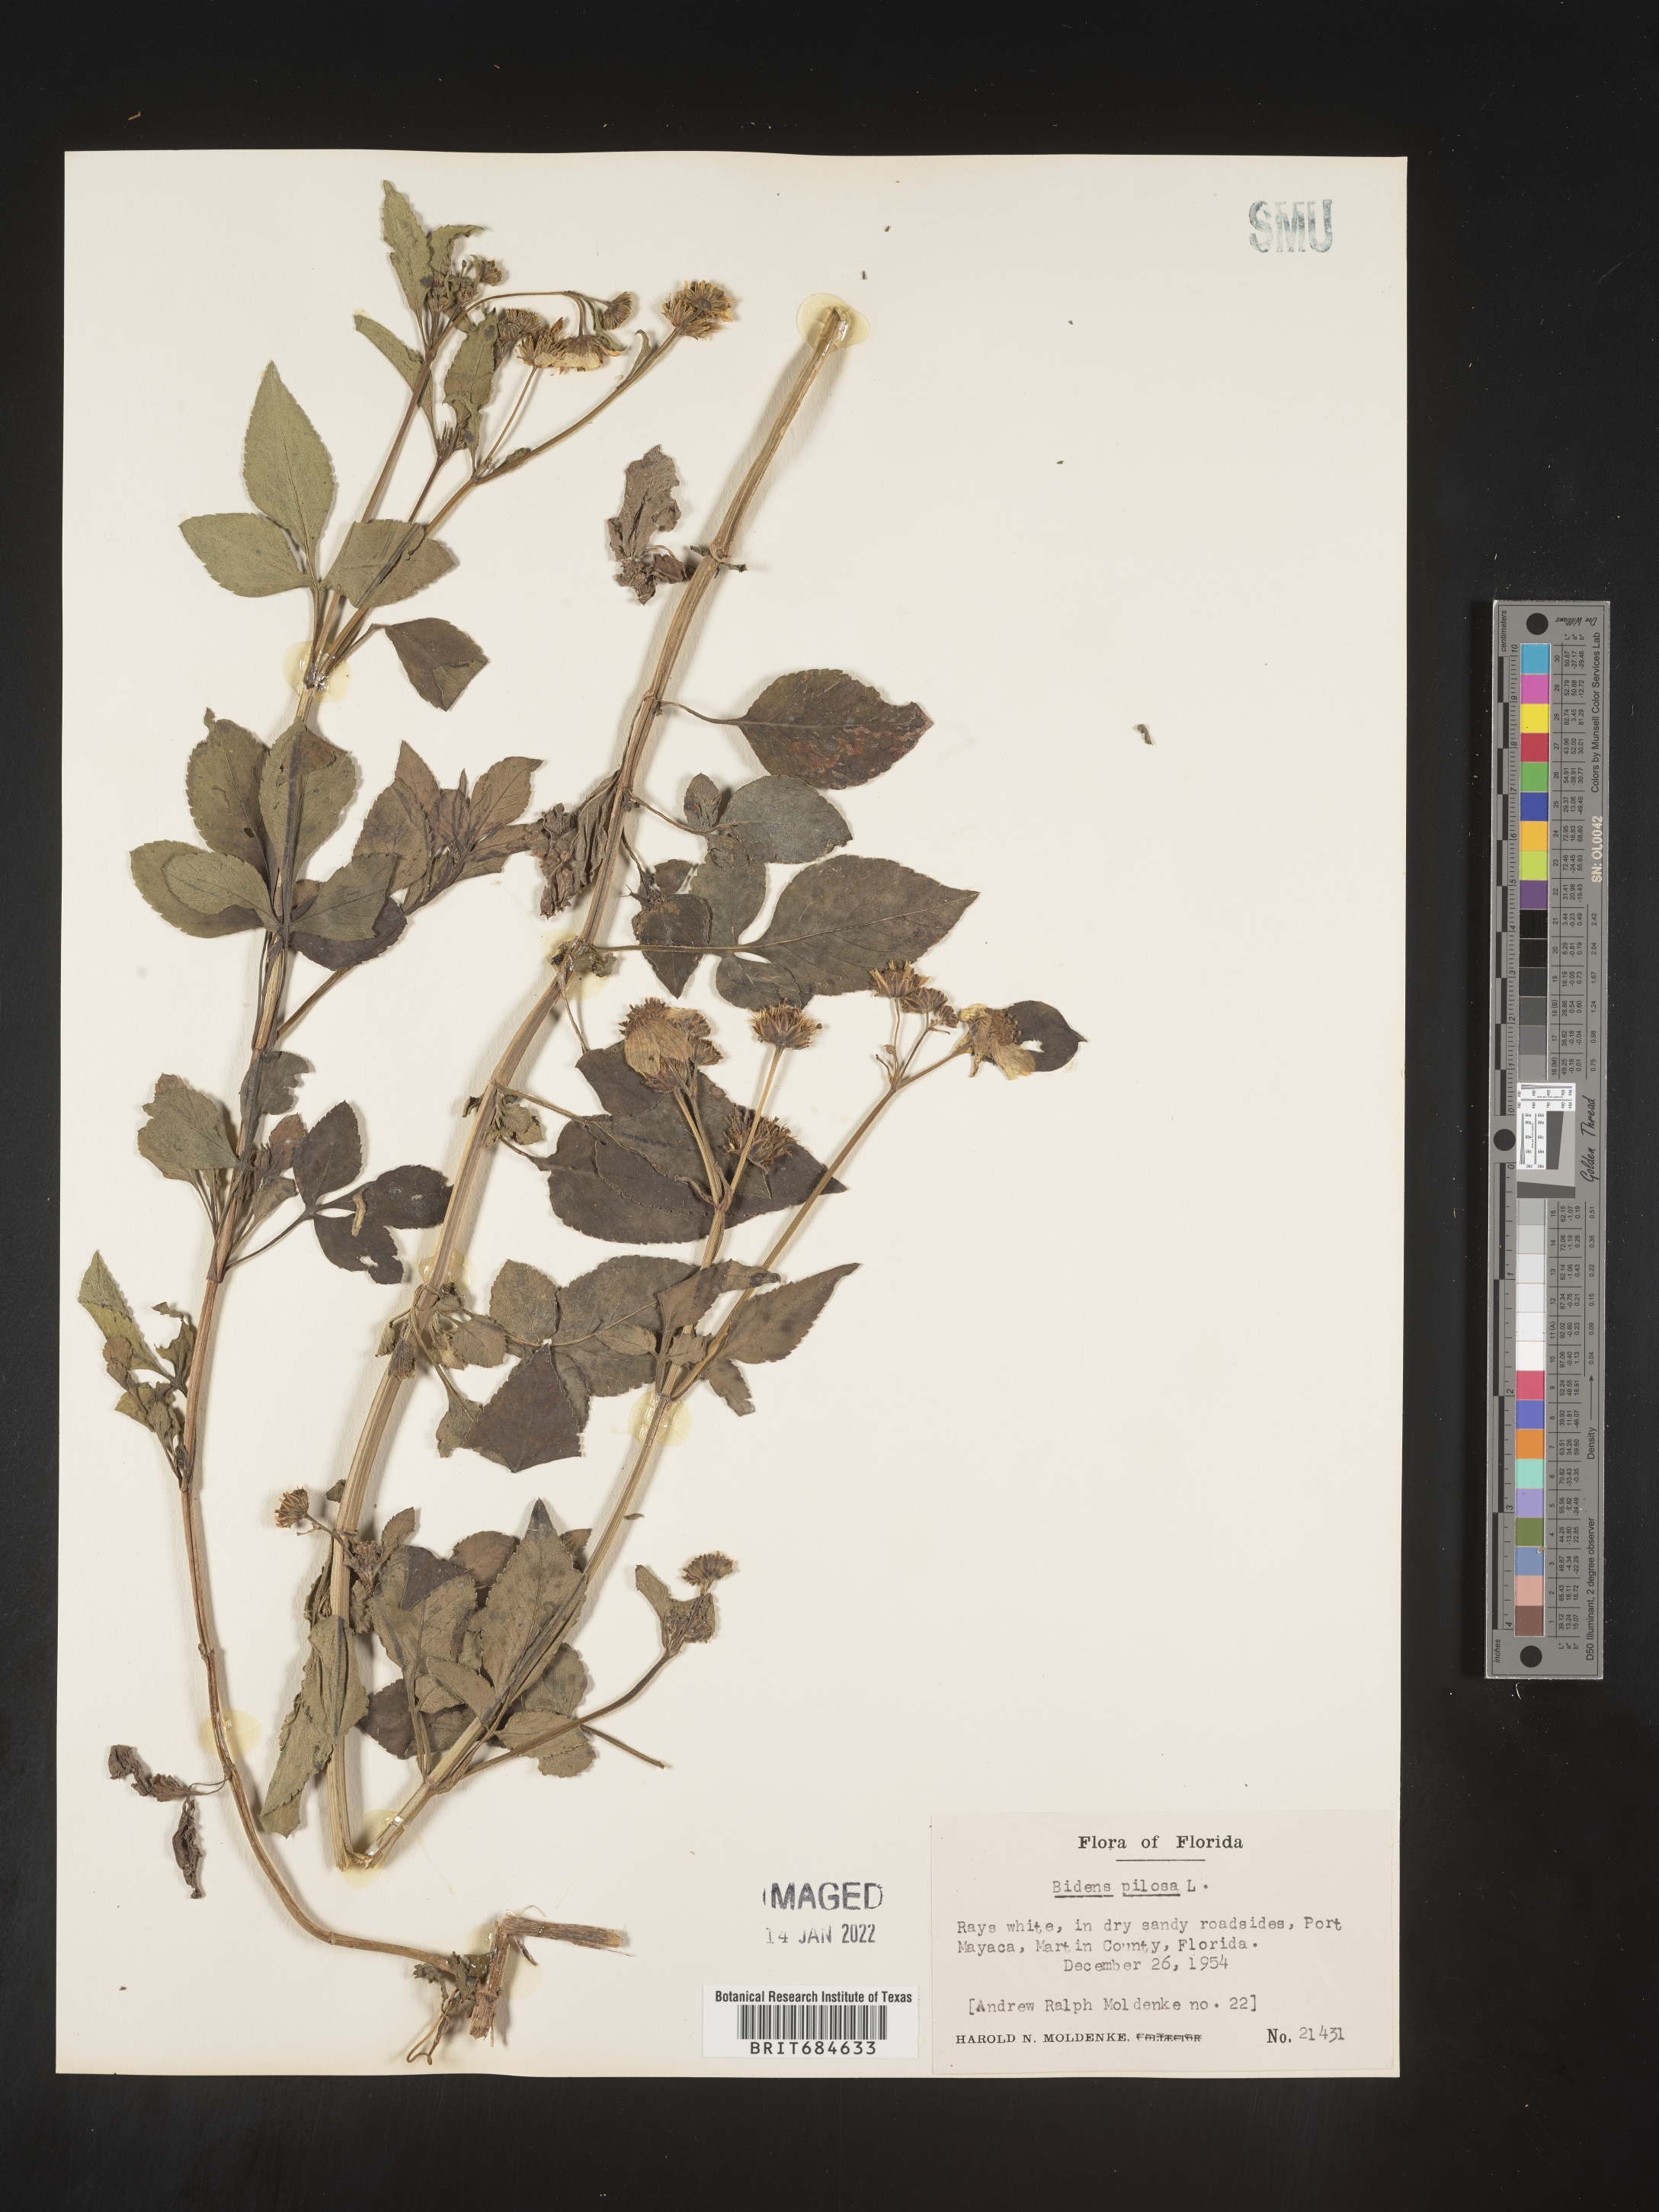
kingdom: Plantae
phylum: Tracheophyta
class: Magnoliopsida
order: Asterales
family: Asteraceae
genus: Bidens
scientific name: Bidens pilosa
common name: Black-jack
